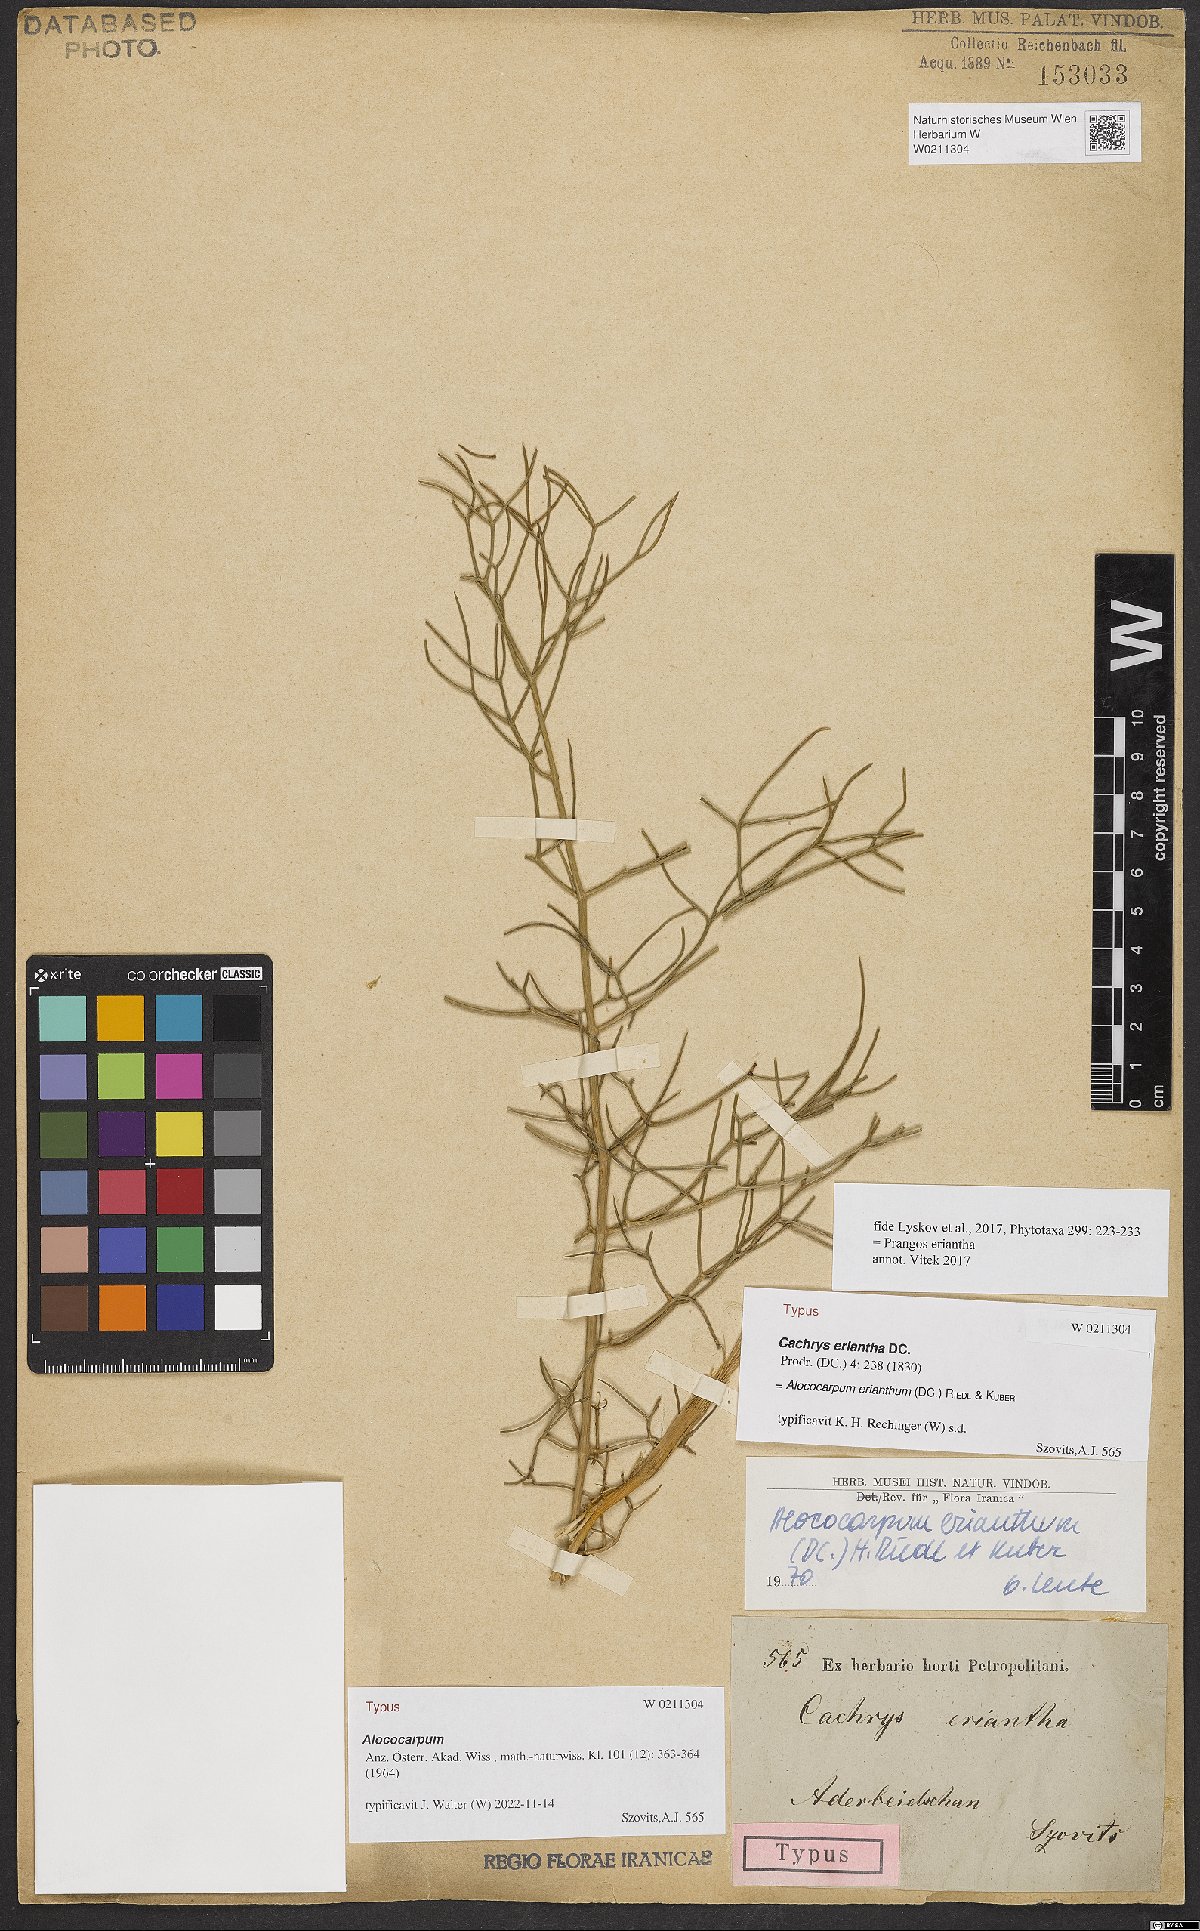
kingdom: Plantae
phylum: Tracheophyta
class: Magnoliopsida
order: Apiales
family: Apiaceae
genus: Prangos
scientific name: Prangos eriantha
